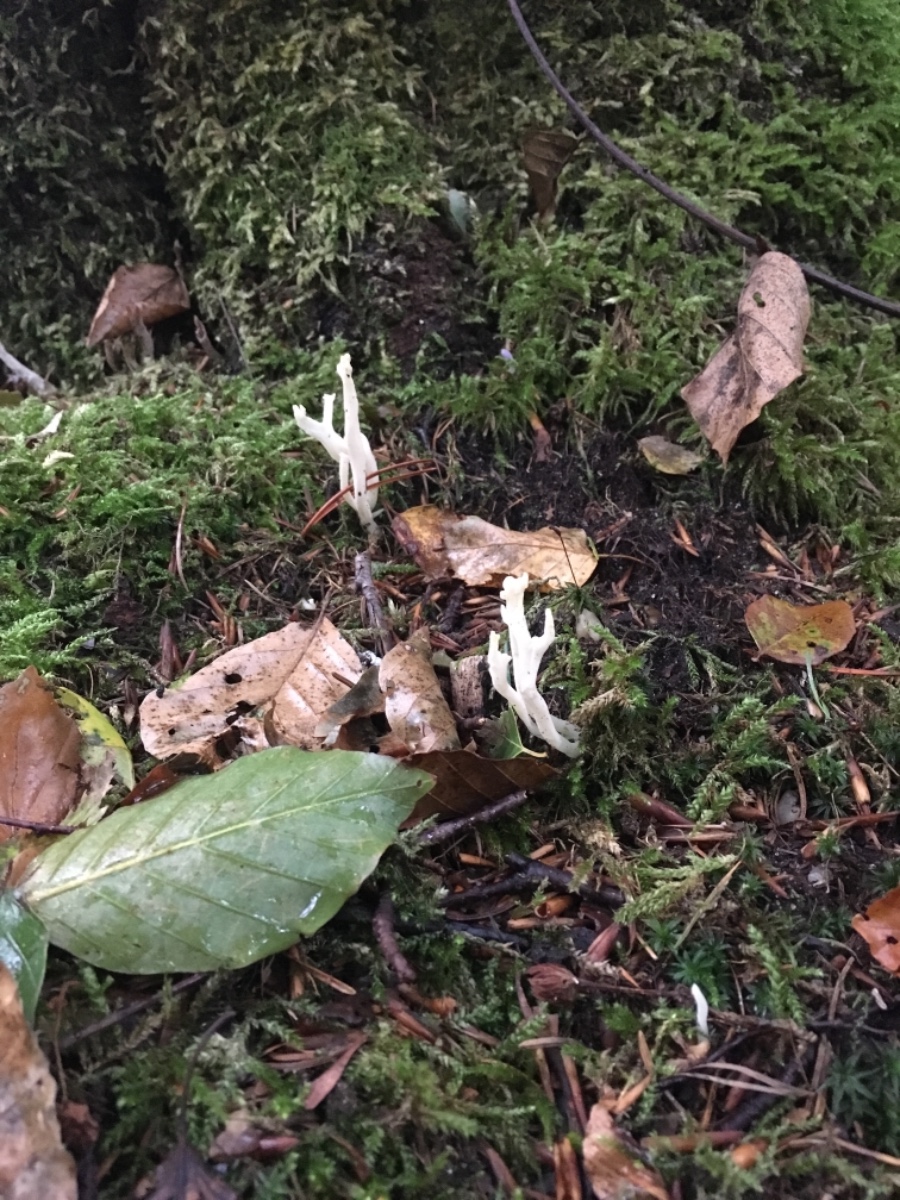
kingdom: Fungi
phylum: Basidiomycota
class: Agaricomycetes
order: Cantharellales
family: Hydnaceae
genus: Clavulina
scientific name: Clavulina
